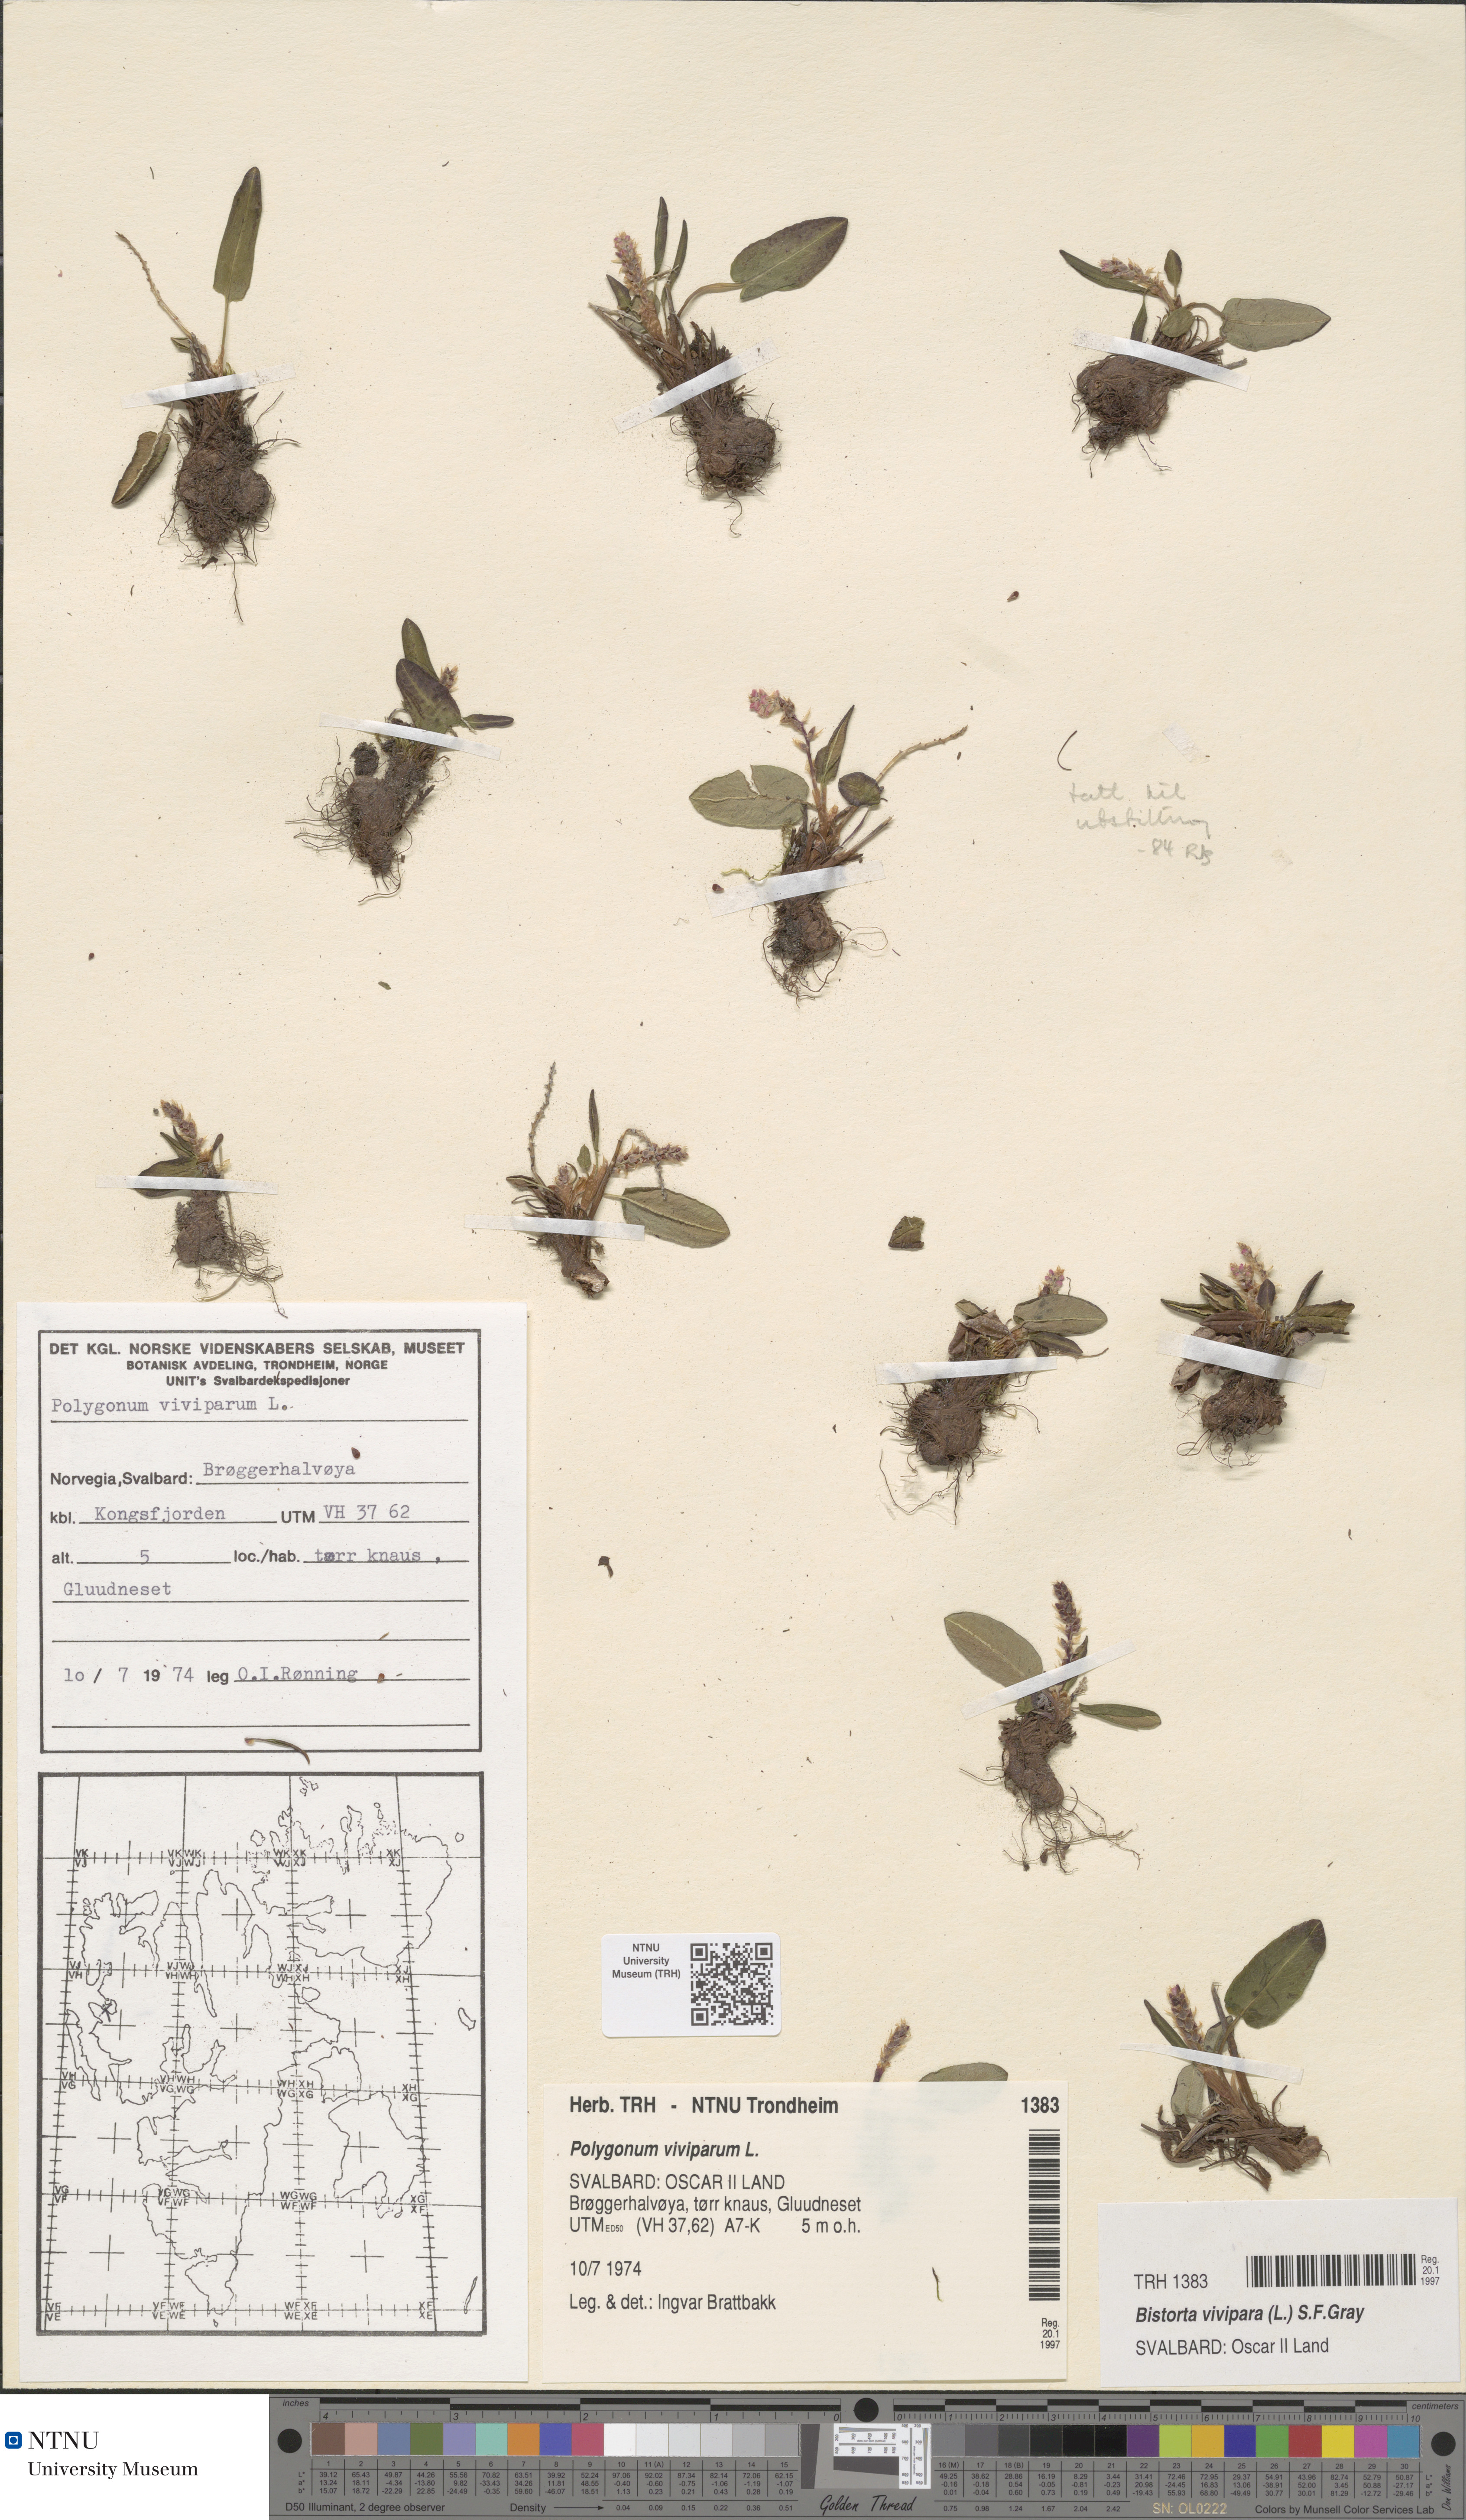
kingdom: Plantae
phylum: Tracheophyta
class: Magnoliopsida
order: Caryophyllales
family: Polygonaceae
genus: Bistorta
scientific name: Bistorta vivipara
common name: Alpine bistort
